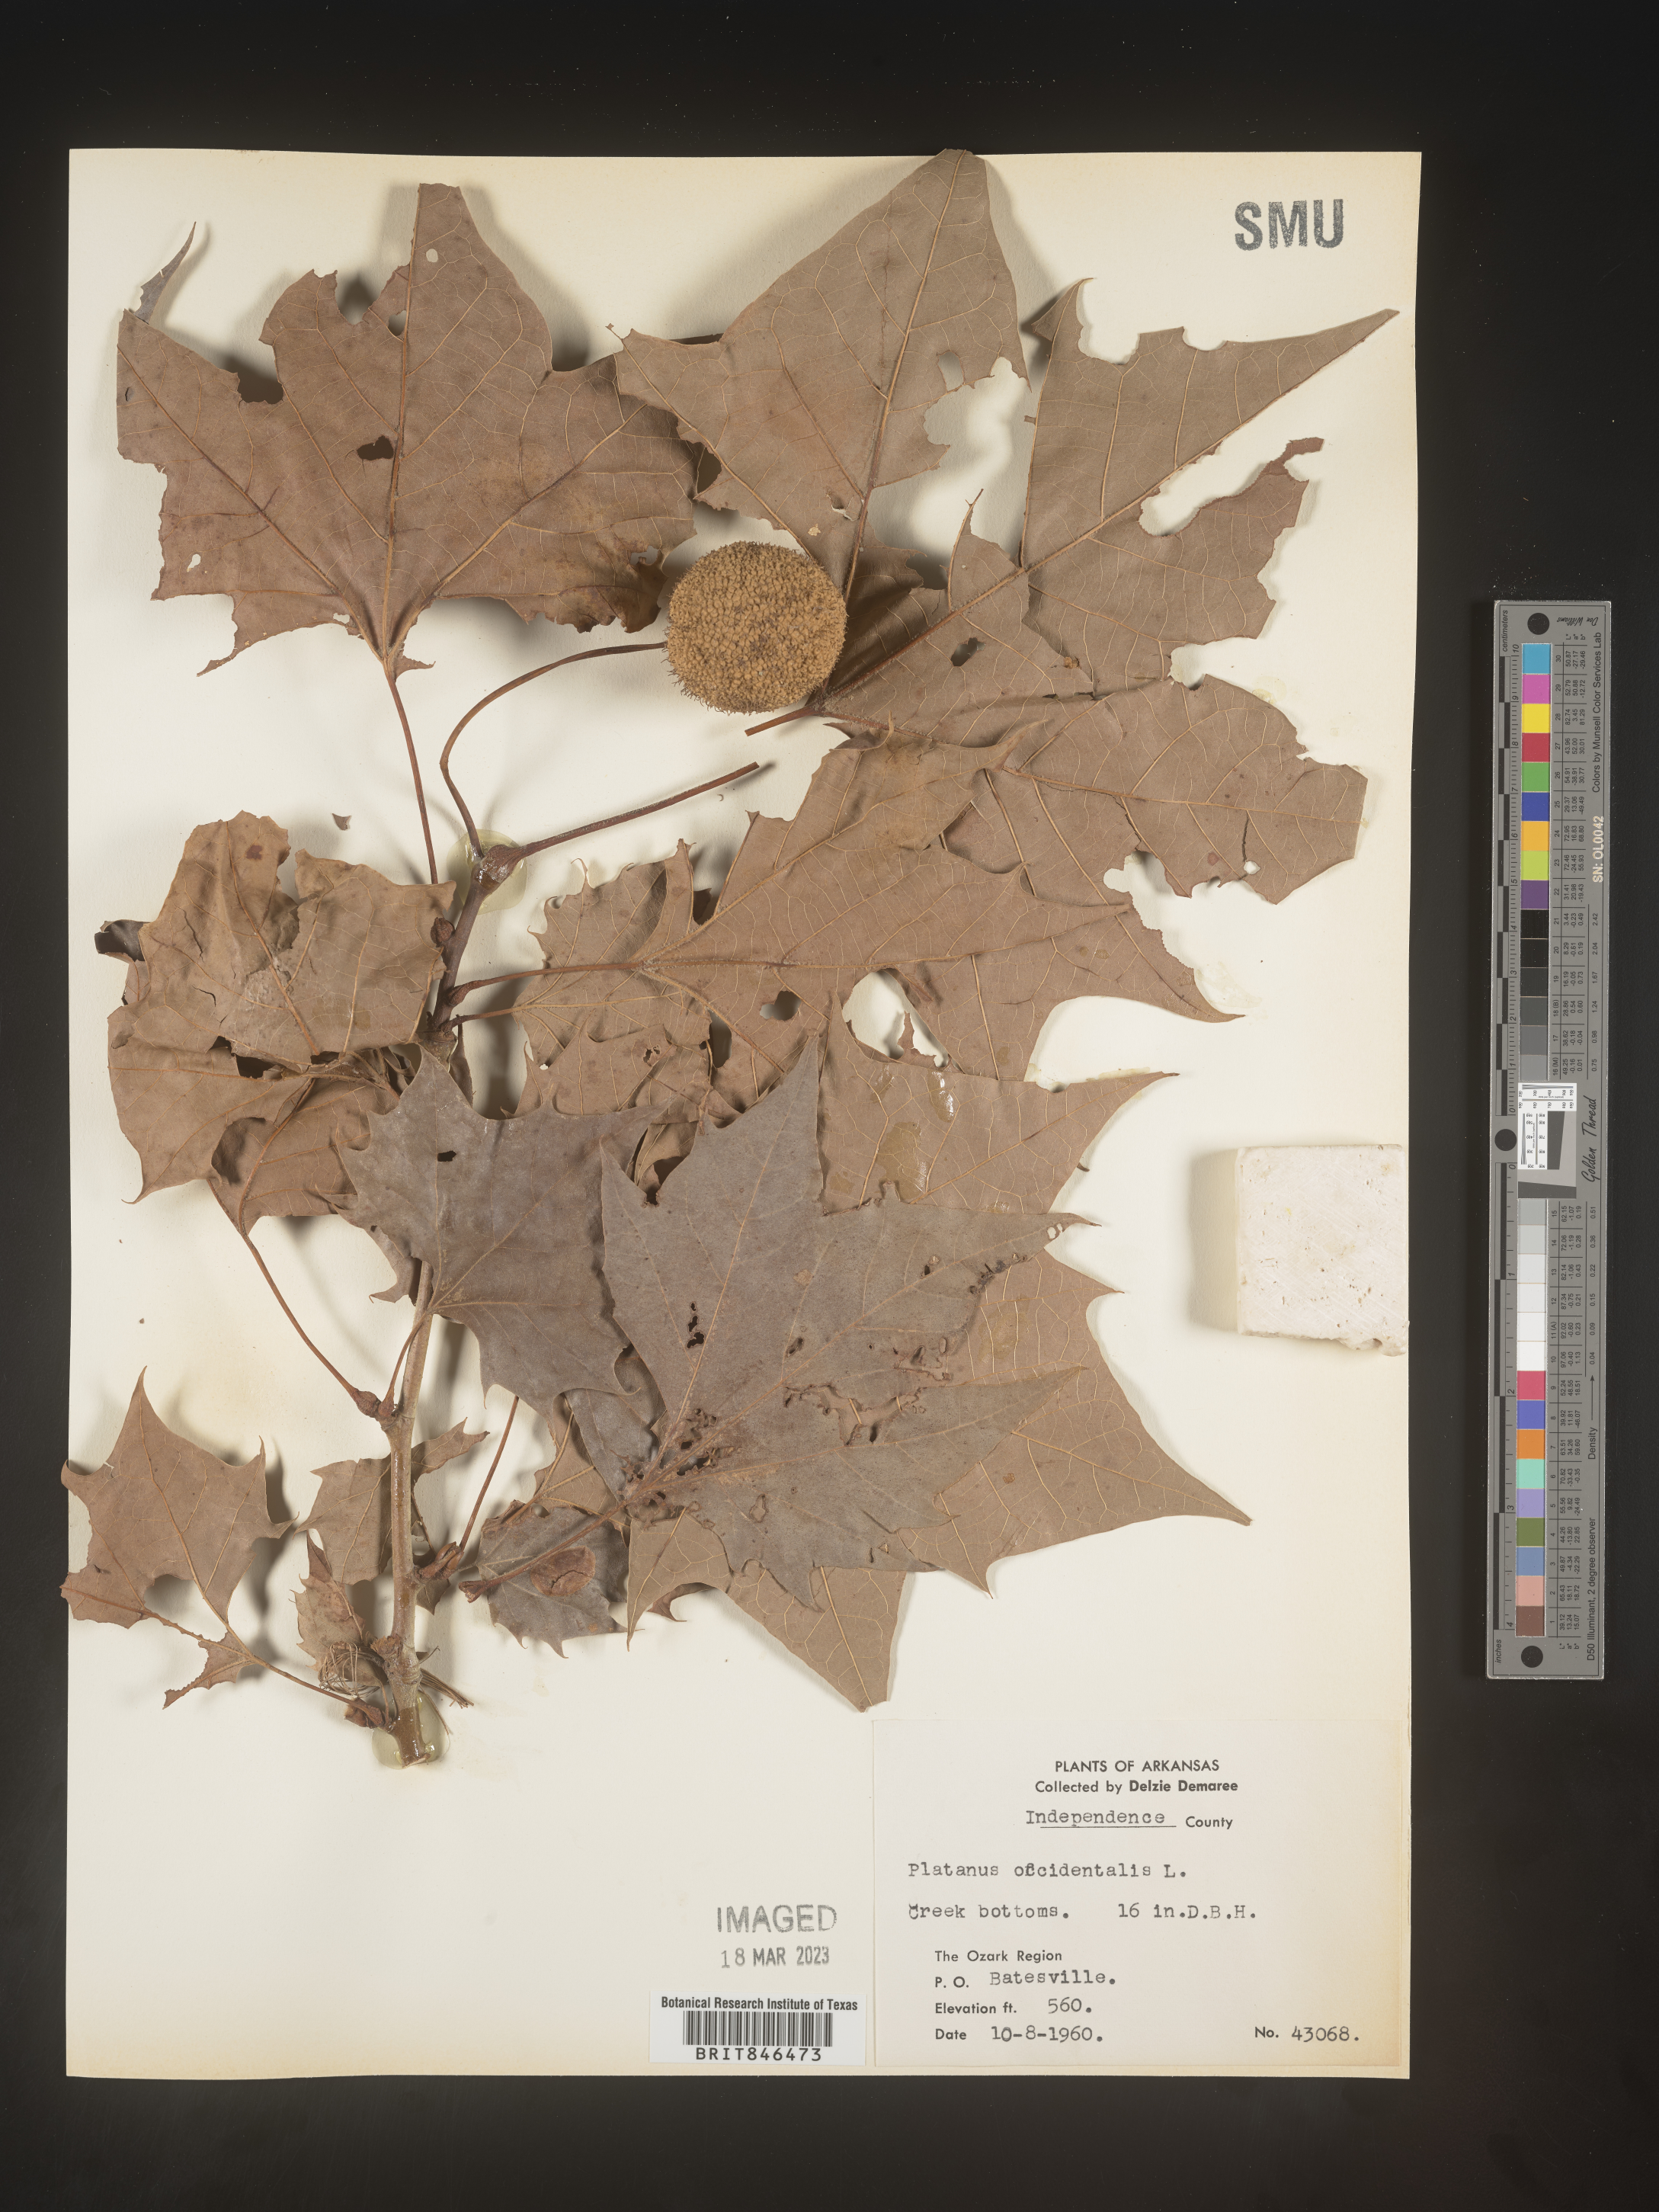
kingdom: Plantae
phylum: Tracheophyta
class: Magnoliopsida
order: Proteales
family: Platanaceae
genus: Platanus
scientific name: Platanus occidentalis
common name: American sycamore
